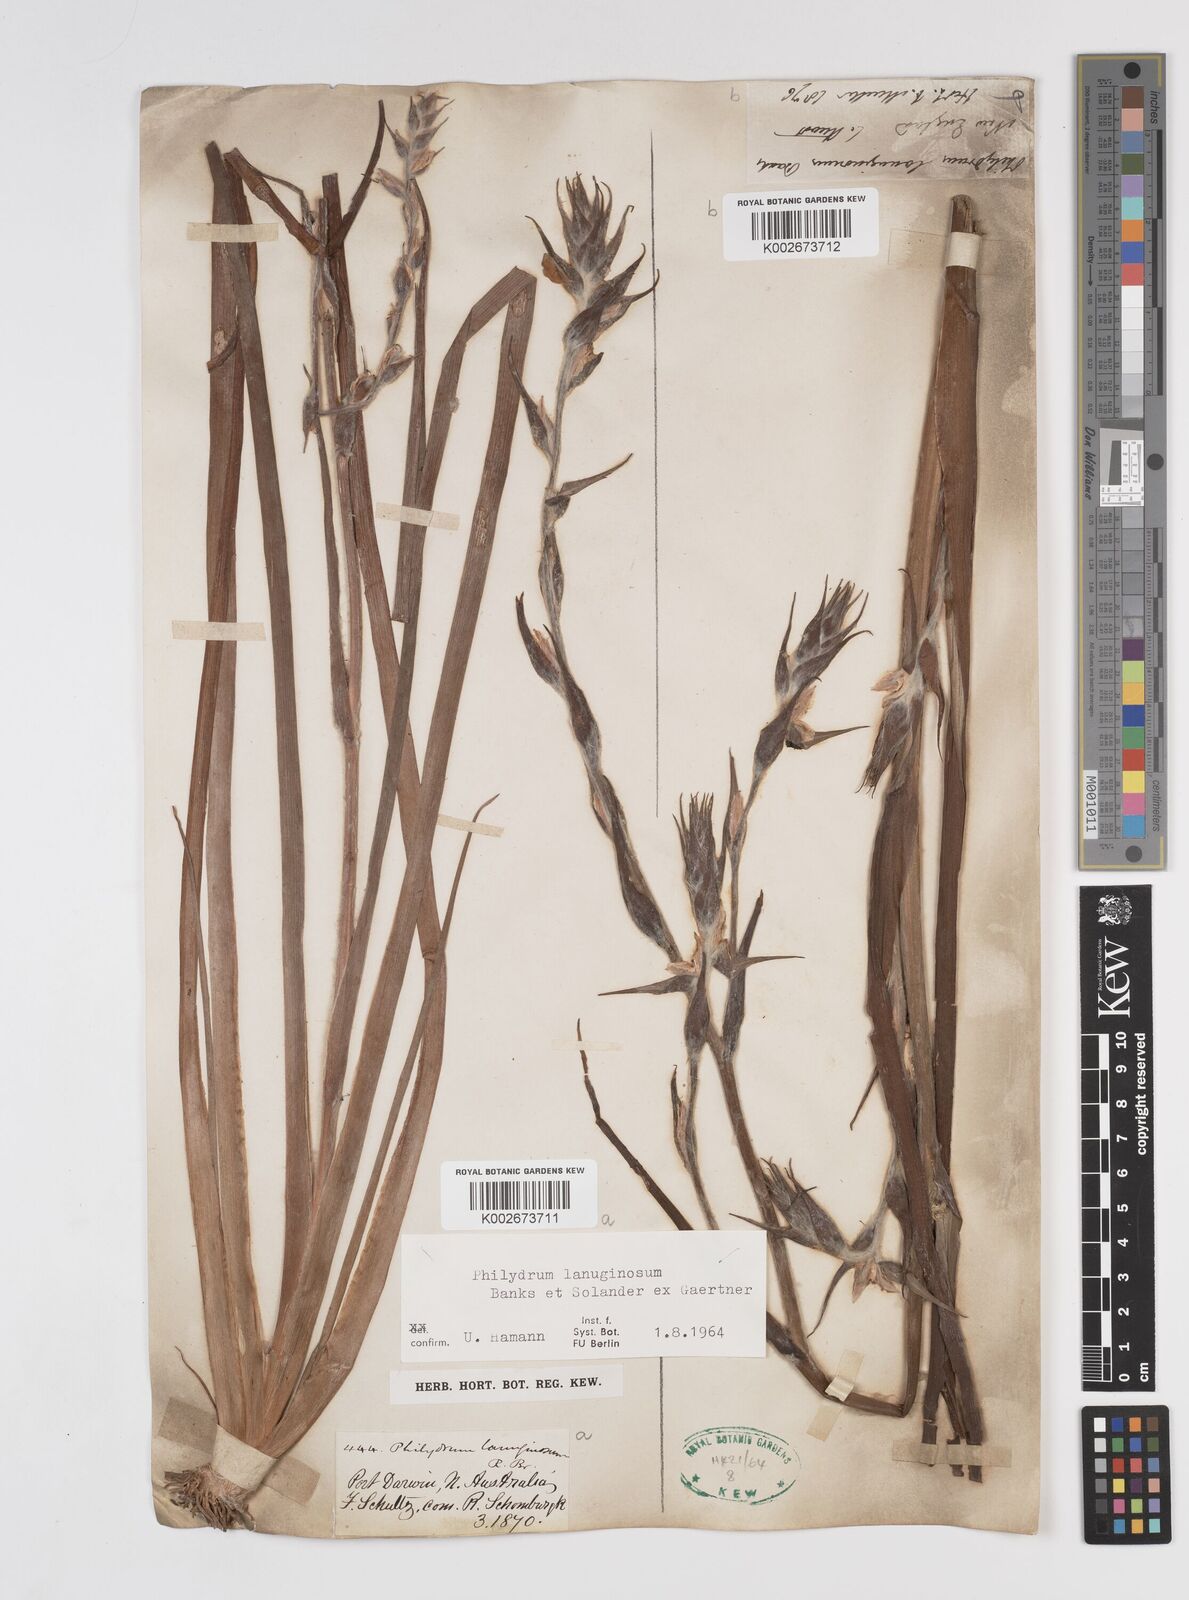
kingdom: Plantae
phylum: Tracheophyta
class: Liliopsida
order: Commelinales
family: Philydraceae
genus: Philydrum
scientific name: Philydrum lanuginosum
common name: Woolly frog's mouth
